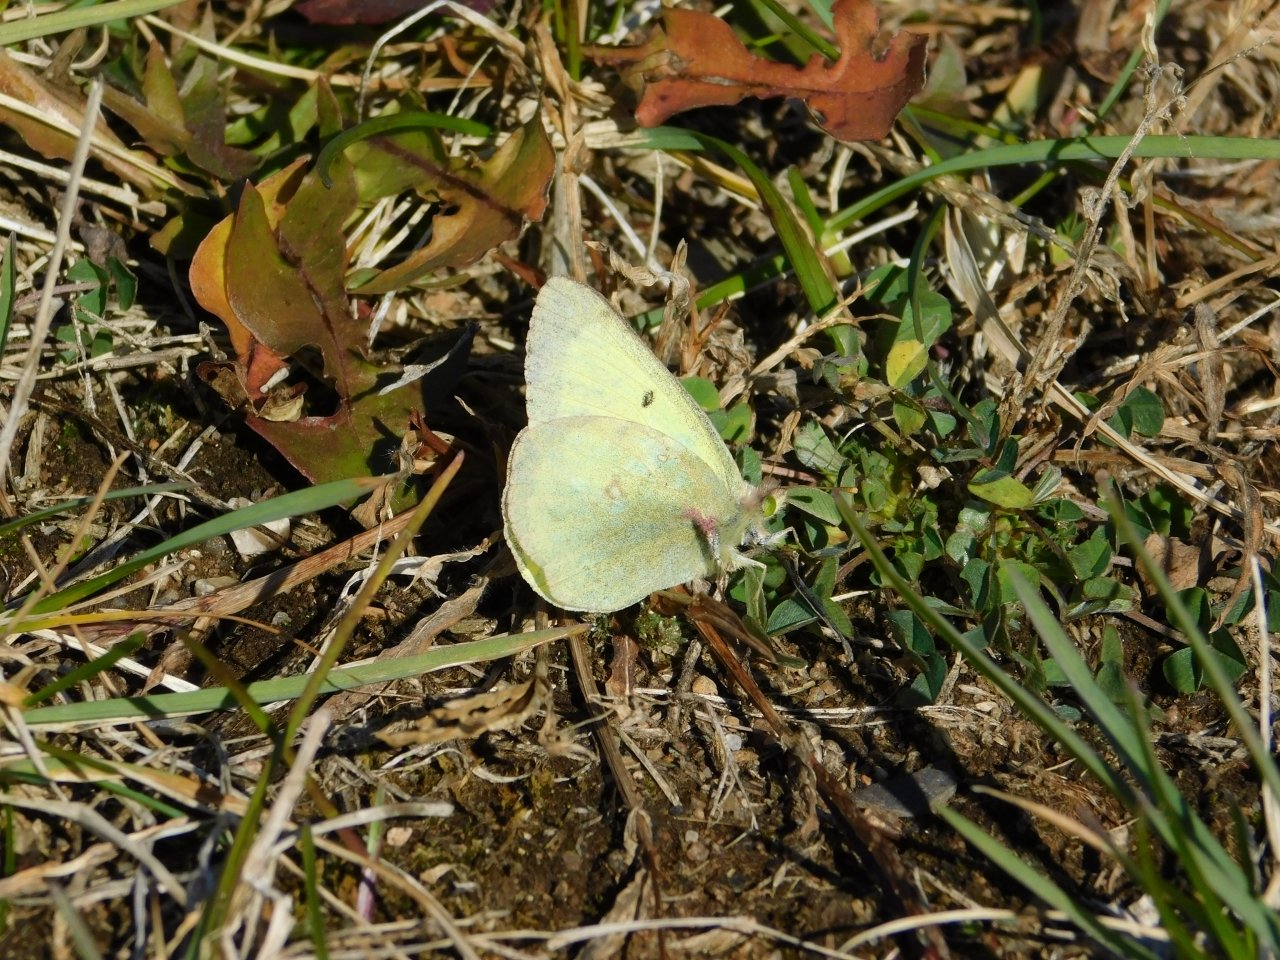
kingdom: Animalia
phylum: Arthropoda
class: Insecta
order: Lepidoptera
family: Pieridae
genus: Colias
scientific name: Colias philodice
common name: Clouded Sulphur
